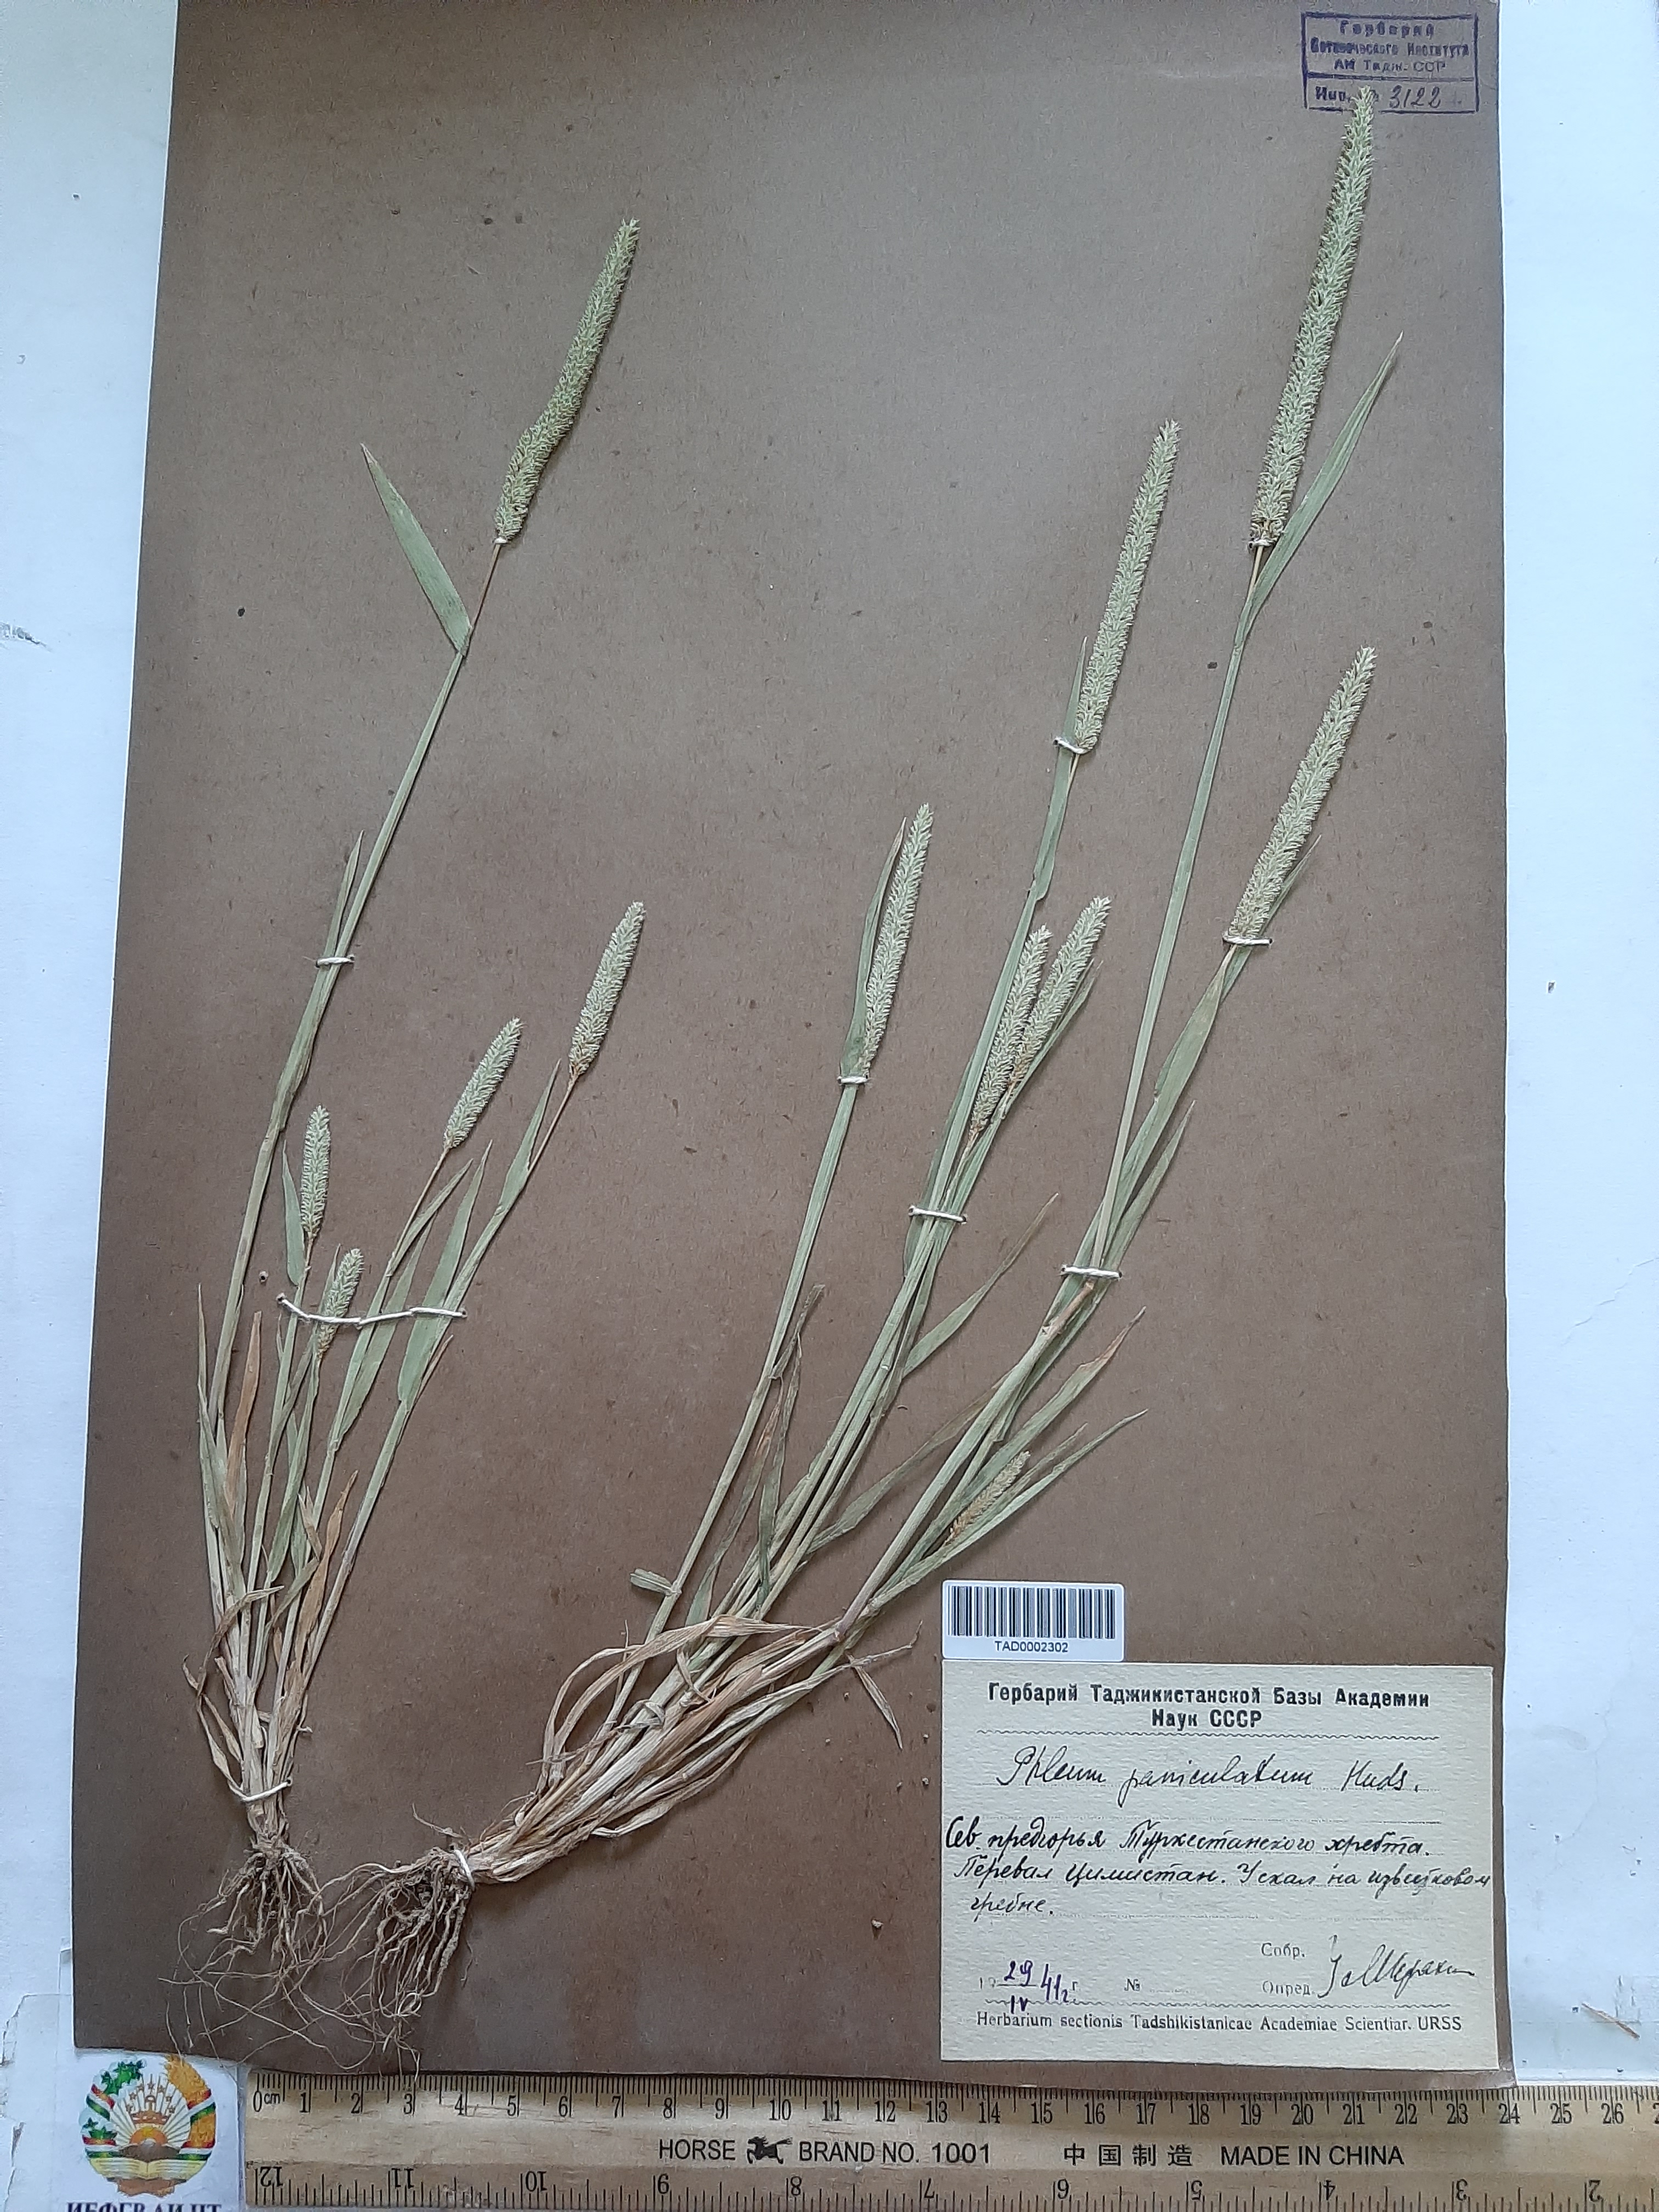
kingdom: Plantae
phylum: Tracheophyta
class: Liliopsida
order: Poales
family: Poaceae
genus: Phleum
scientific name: Phleum paniculatum
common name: British timothy
